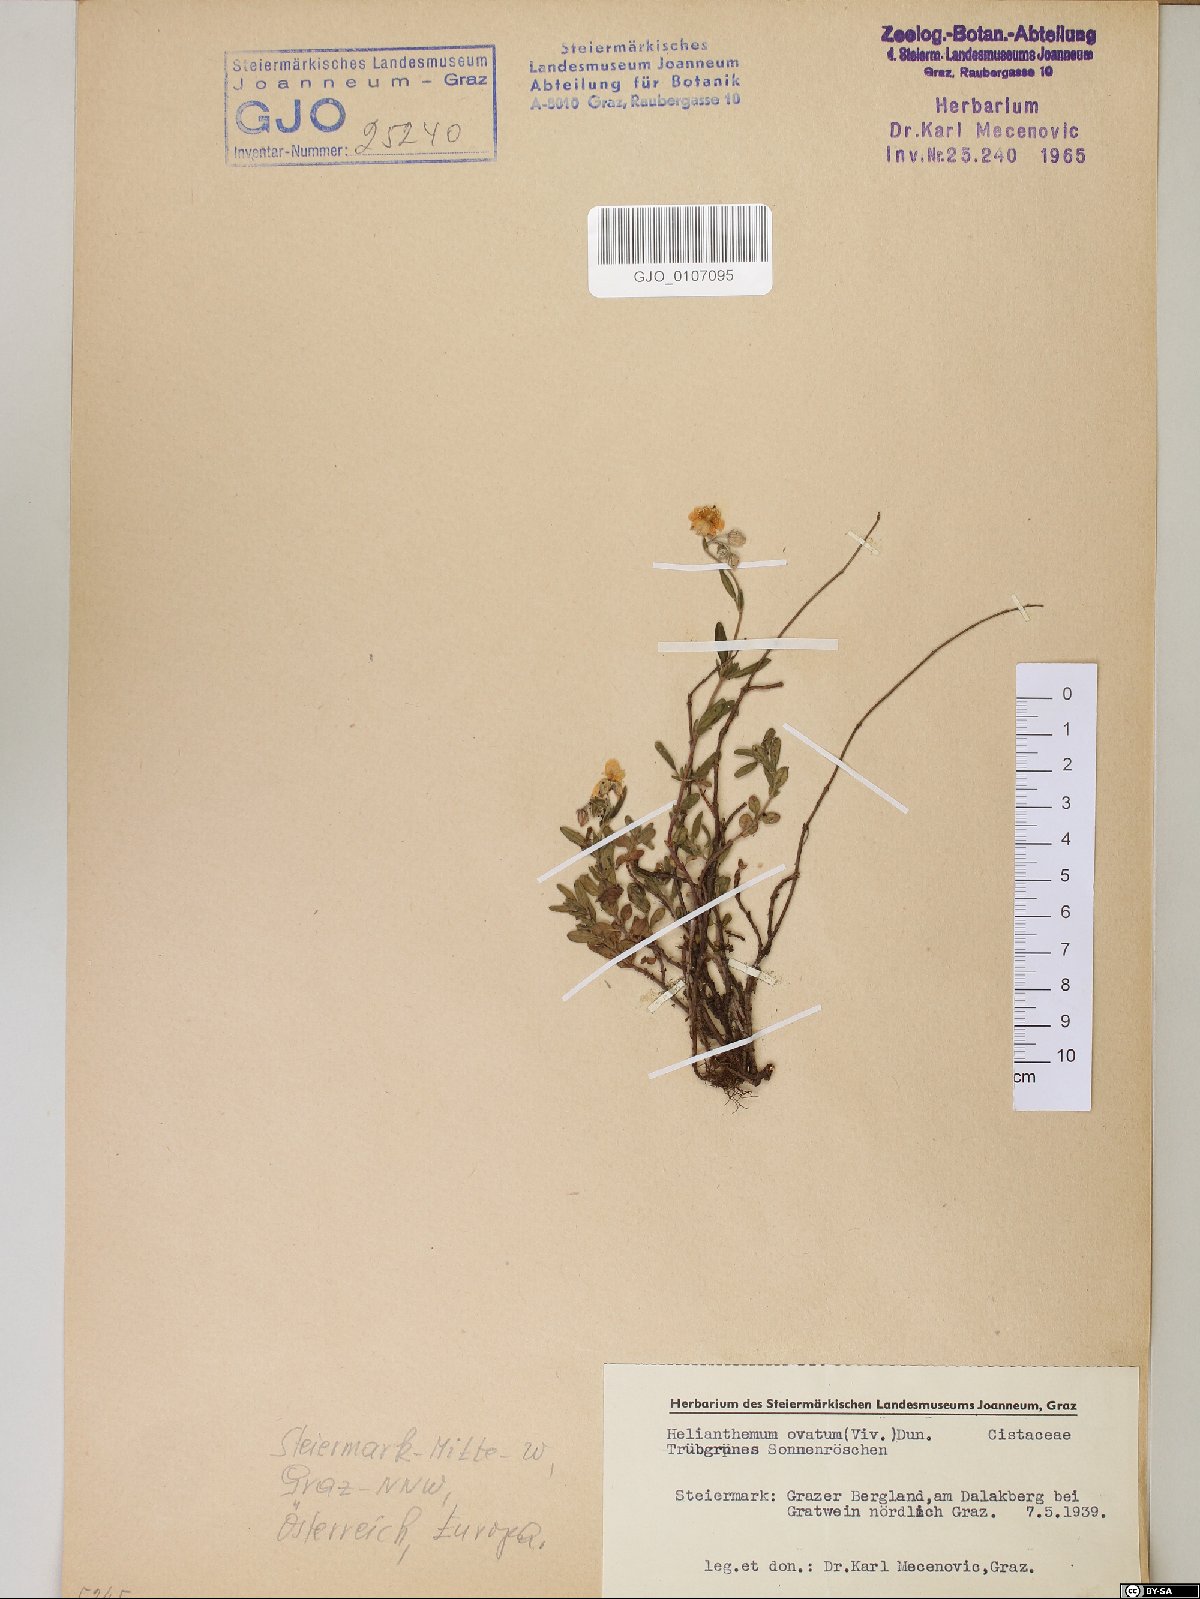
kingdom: Plantae
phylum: Tracheophyta
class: Magnoliopsida
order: Malvales
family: Cistaceae
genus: Helianthemum
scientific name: Helianthemum nummularium
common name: Common rock-rose
